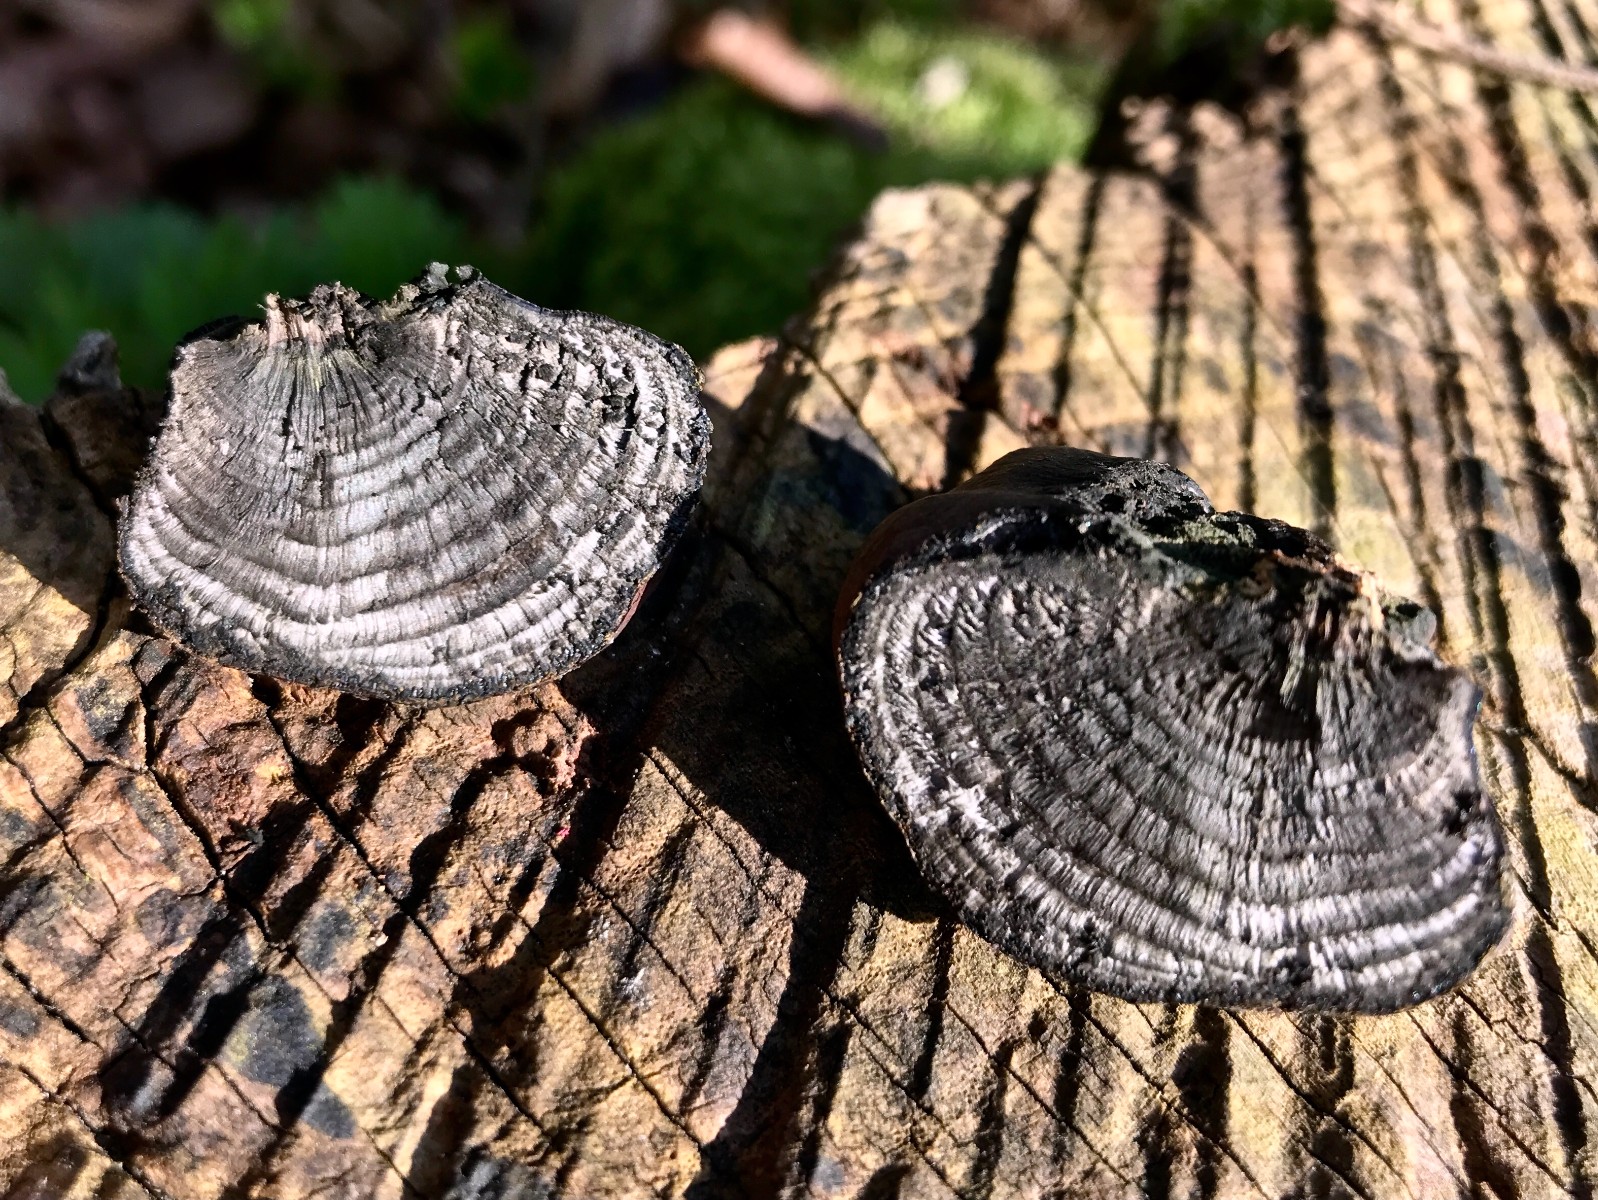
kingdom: Fungi
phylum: Ascomycota
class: Sordariomycetes
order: Xylariales
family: Hypoxylaceae
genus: Daldinia
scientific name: Daldinia concentrica
